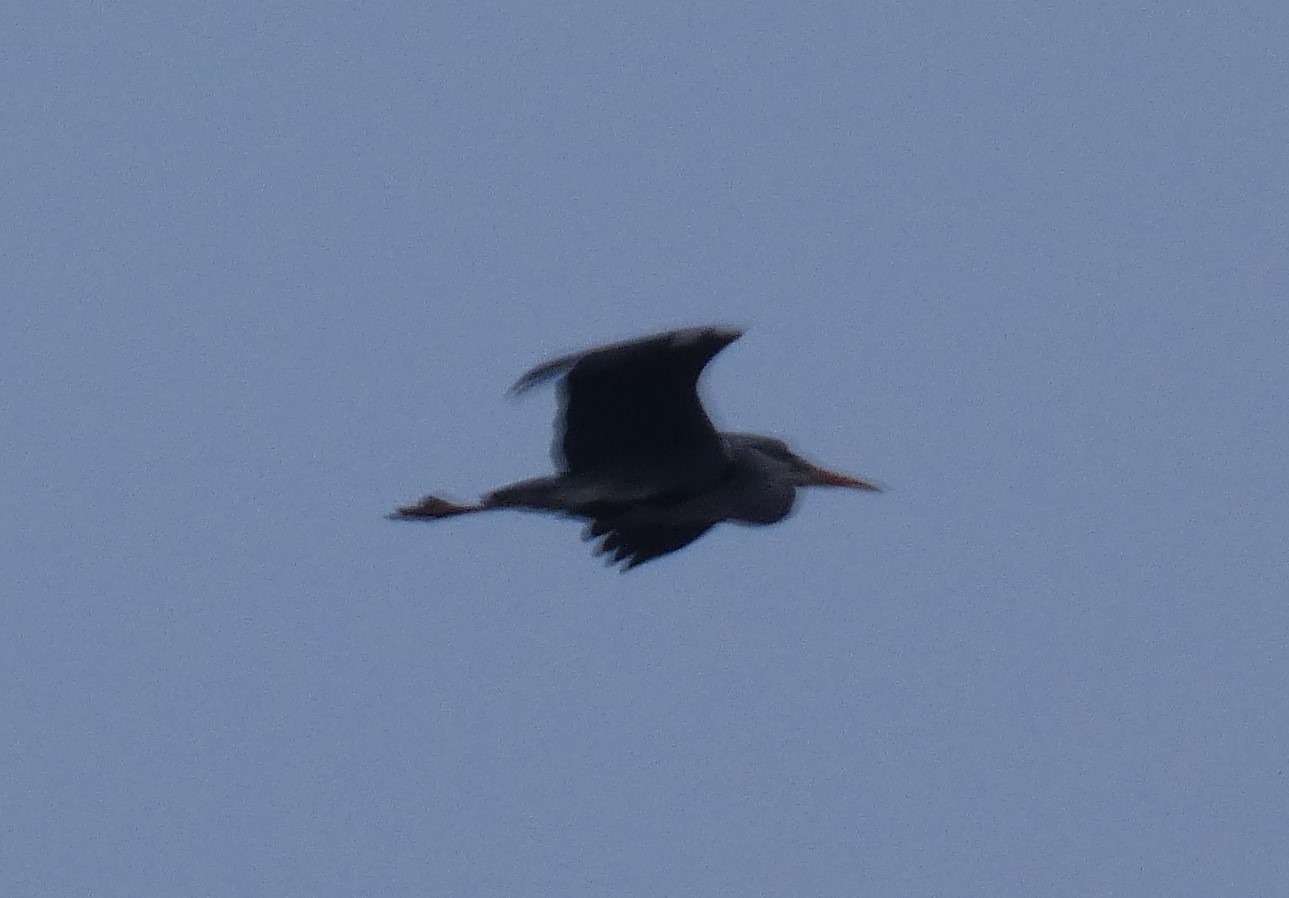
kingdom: Animalia
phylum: Chordata
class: Aves
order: Pelecaniformes
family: Ardeidae
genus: Ardea
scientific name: Ardea cinerea
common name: Fiskehejre
